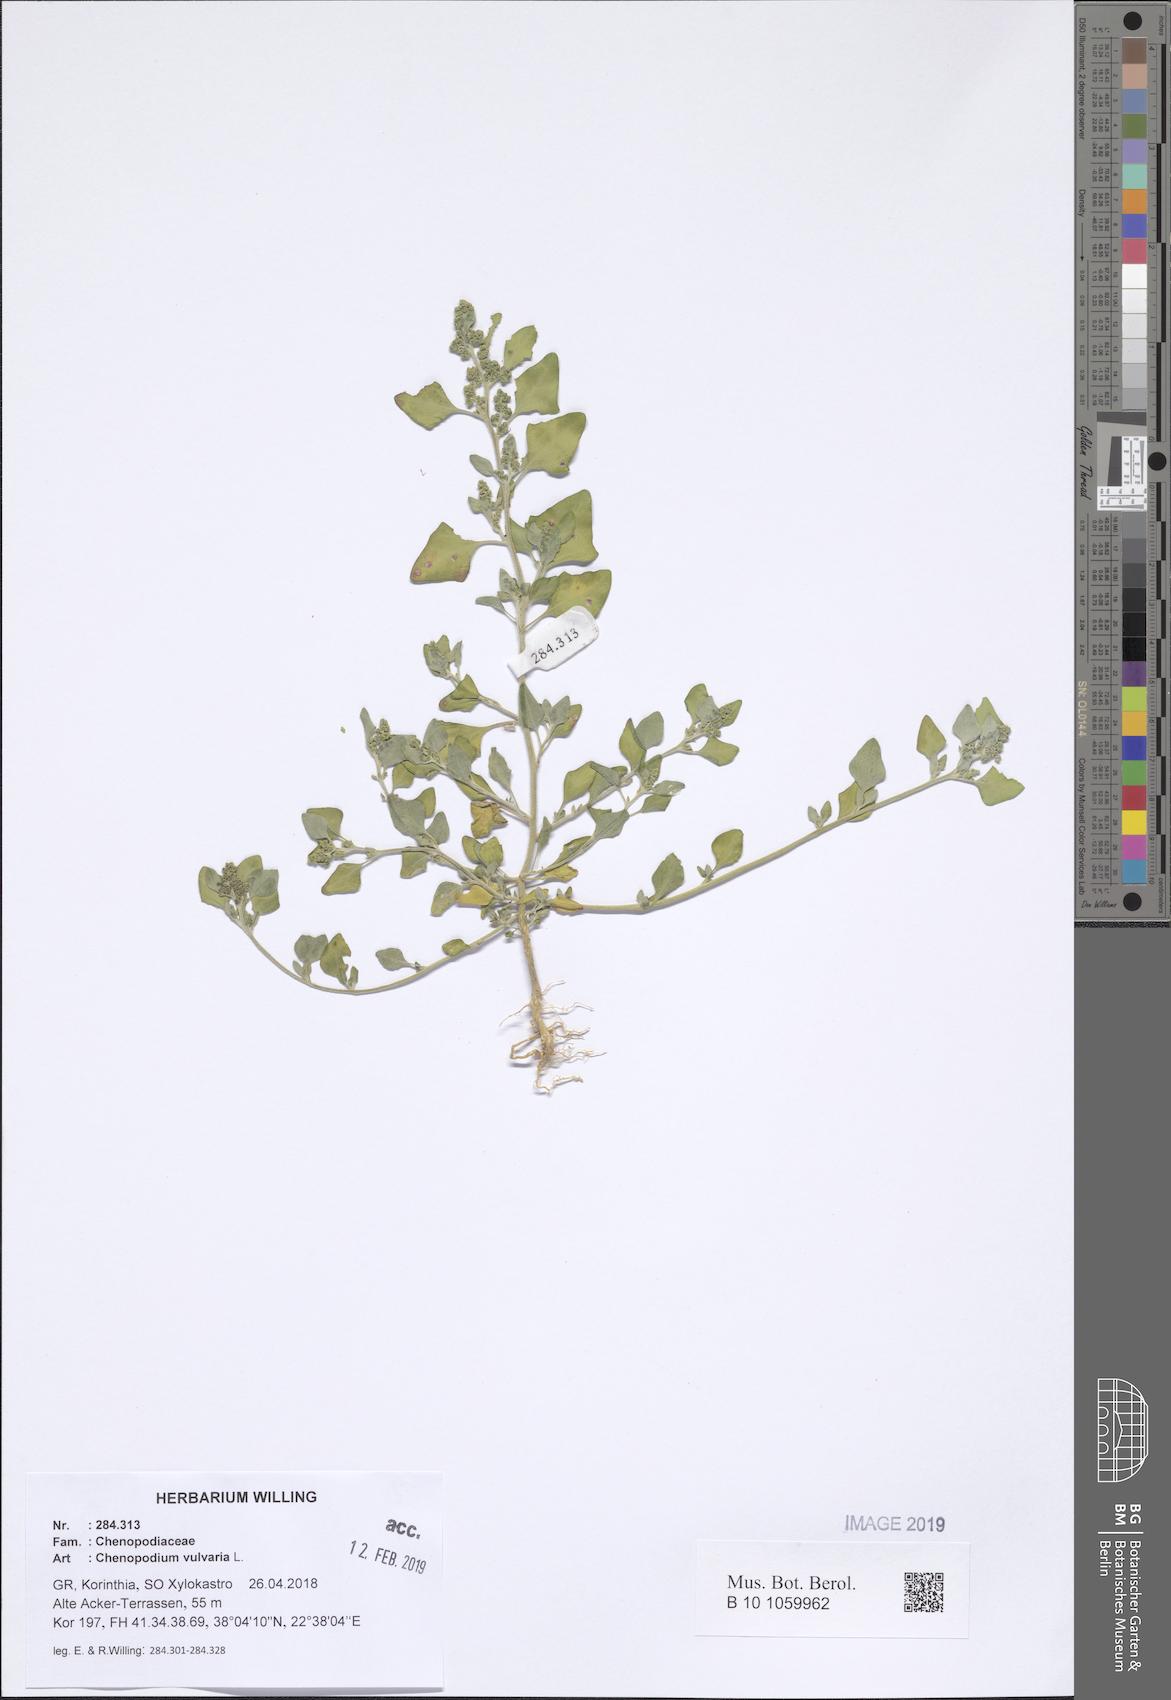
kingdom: Plantae
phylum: Tracheophyta
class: Magnoliopsida
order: Caryophyllales
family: Amaranthaceae
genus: Chenopodium
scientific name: Chenopodium vulvaria
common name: Stinking goosefoot
